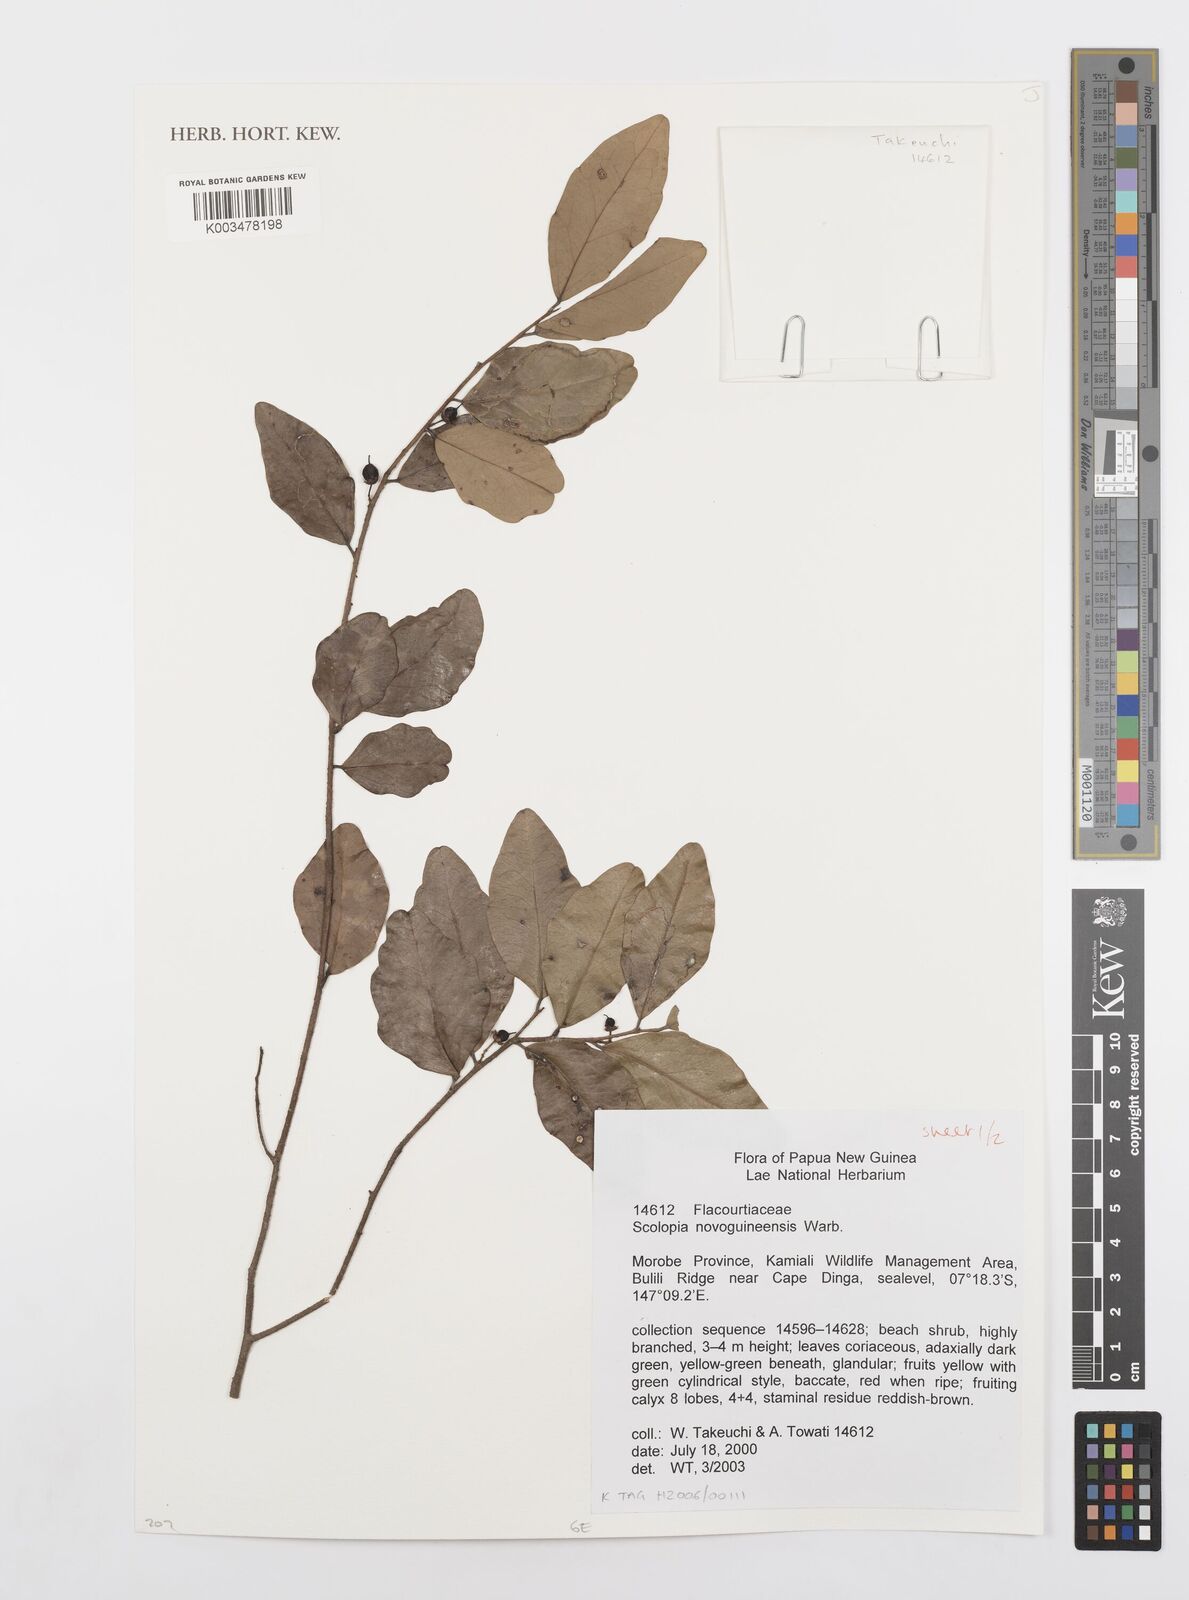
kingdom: Plantae
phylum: Tracheophyta
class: Magnoliopsida
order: Malpighiales
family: Salicaceae
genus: Scolopia
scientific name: Scolopia novoguineensis
